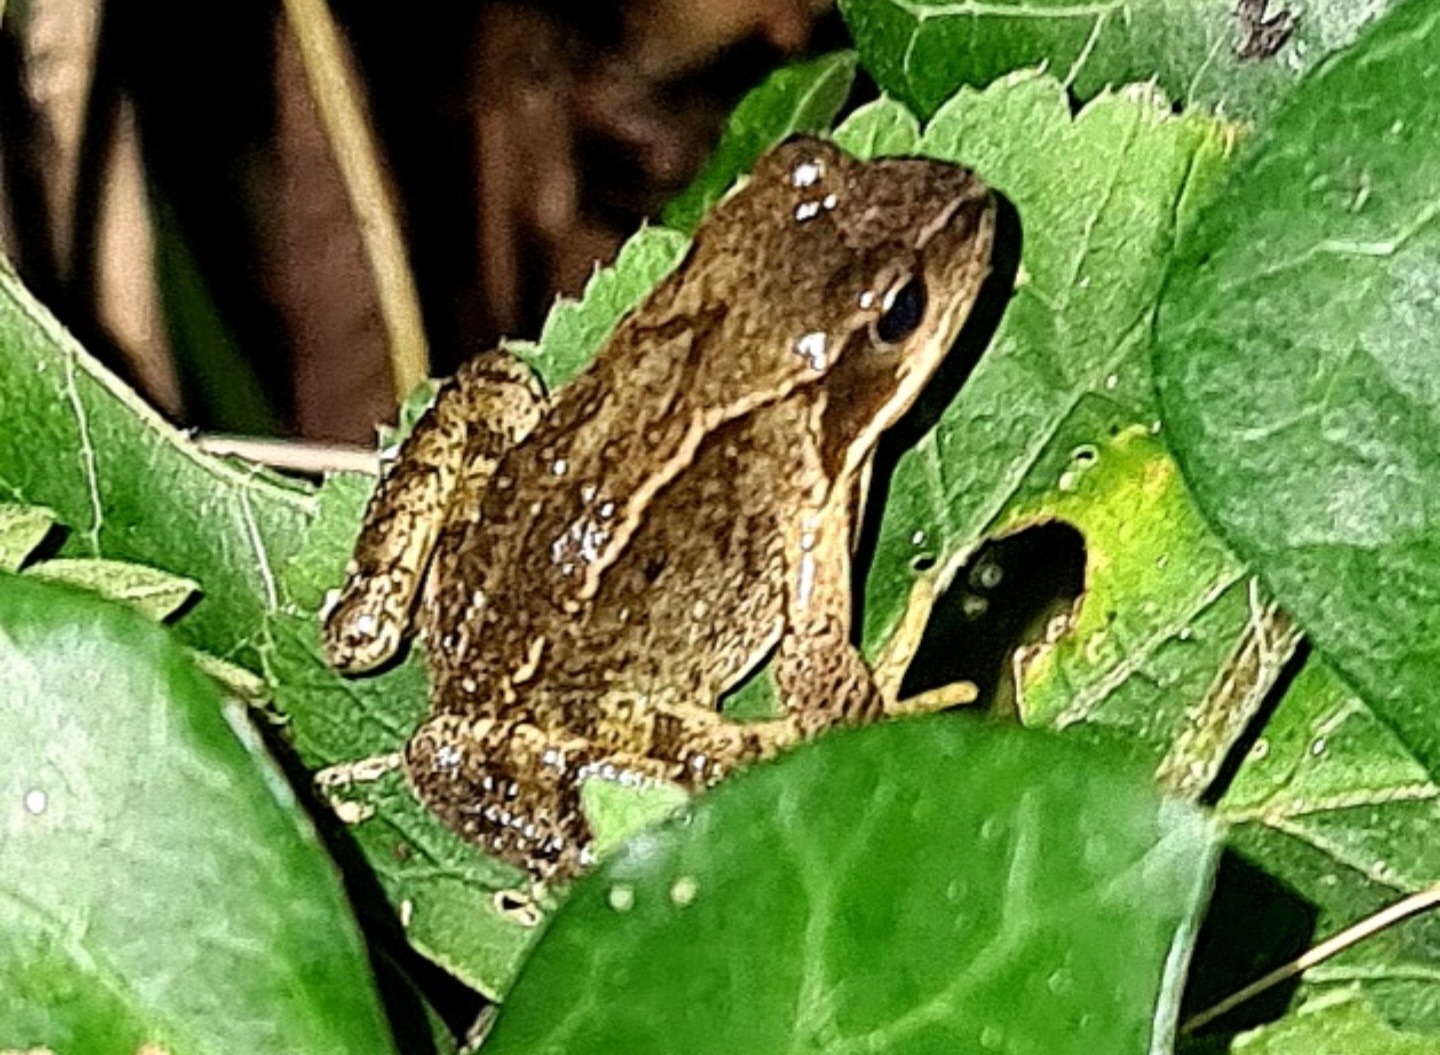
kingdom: Animalia
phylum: Chordata
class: Amphibia
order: Anura
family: Ranidae
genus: Rana
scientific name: Rana temporaria
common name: Butsnudet frø
